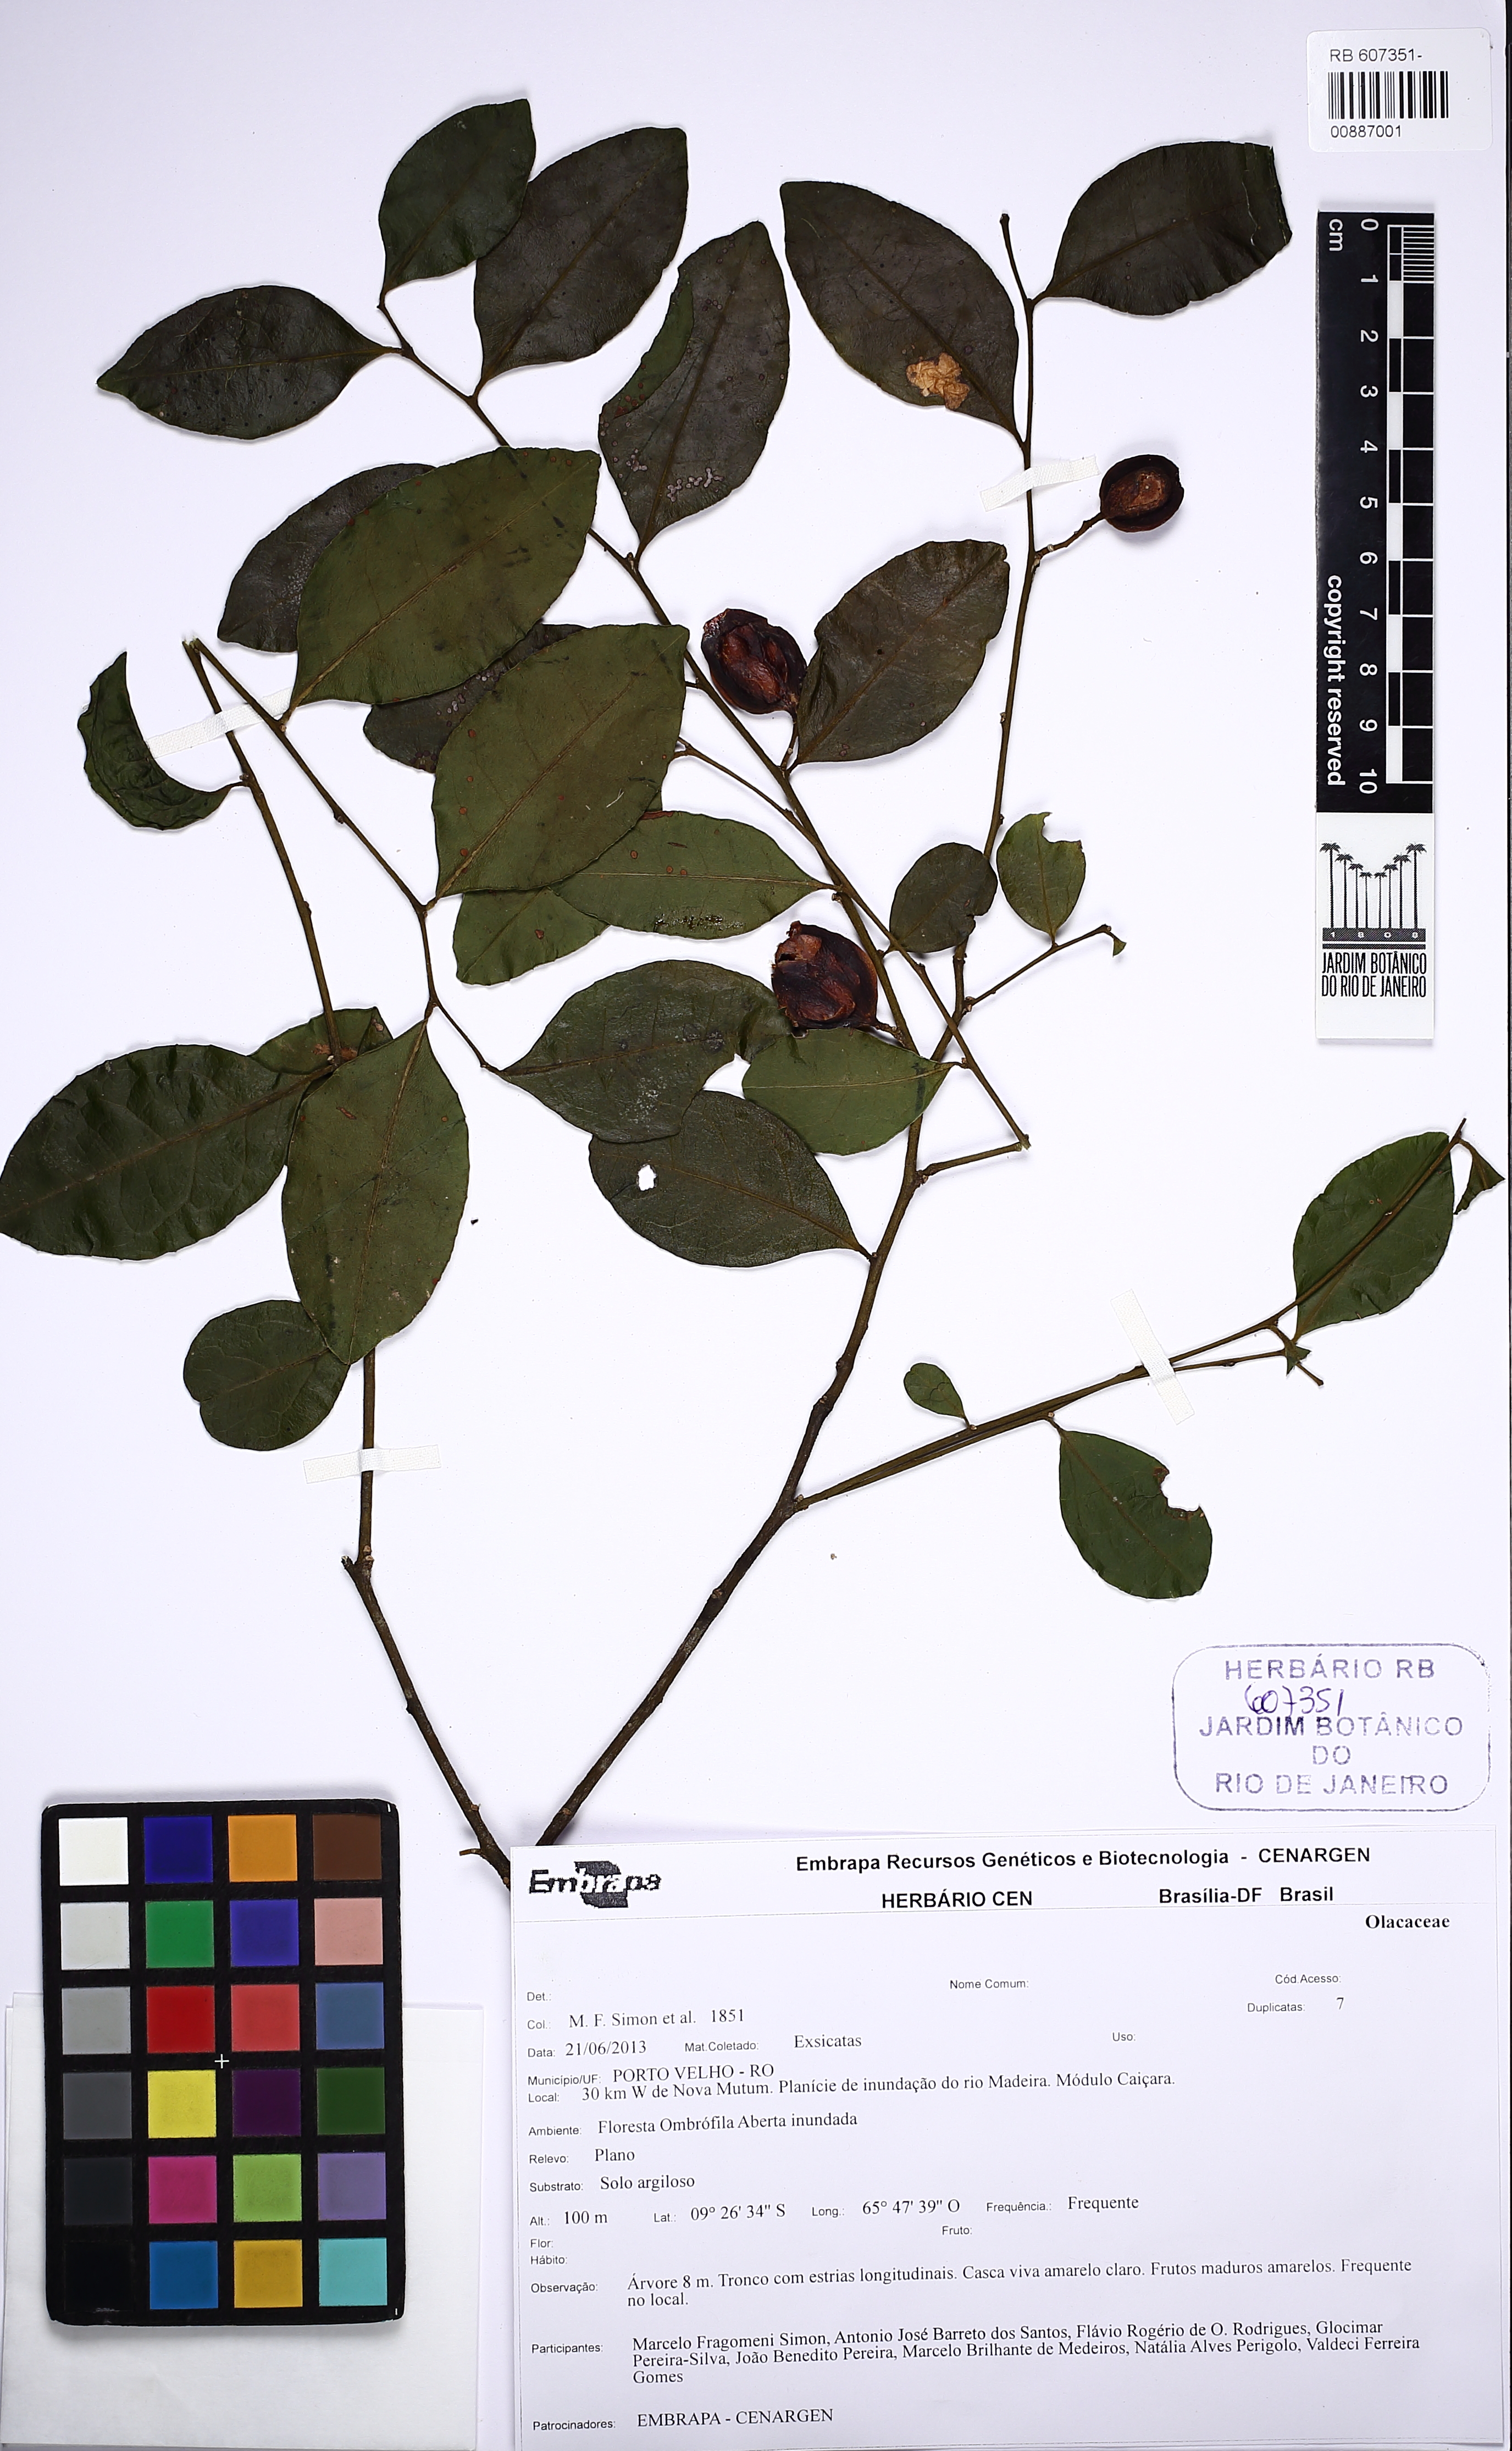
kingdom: Plantae
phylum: Tracheophyta
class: Magnoliopsida
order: Santalales
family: Olacaceae
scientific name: Olacaceae
